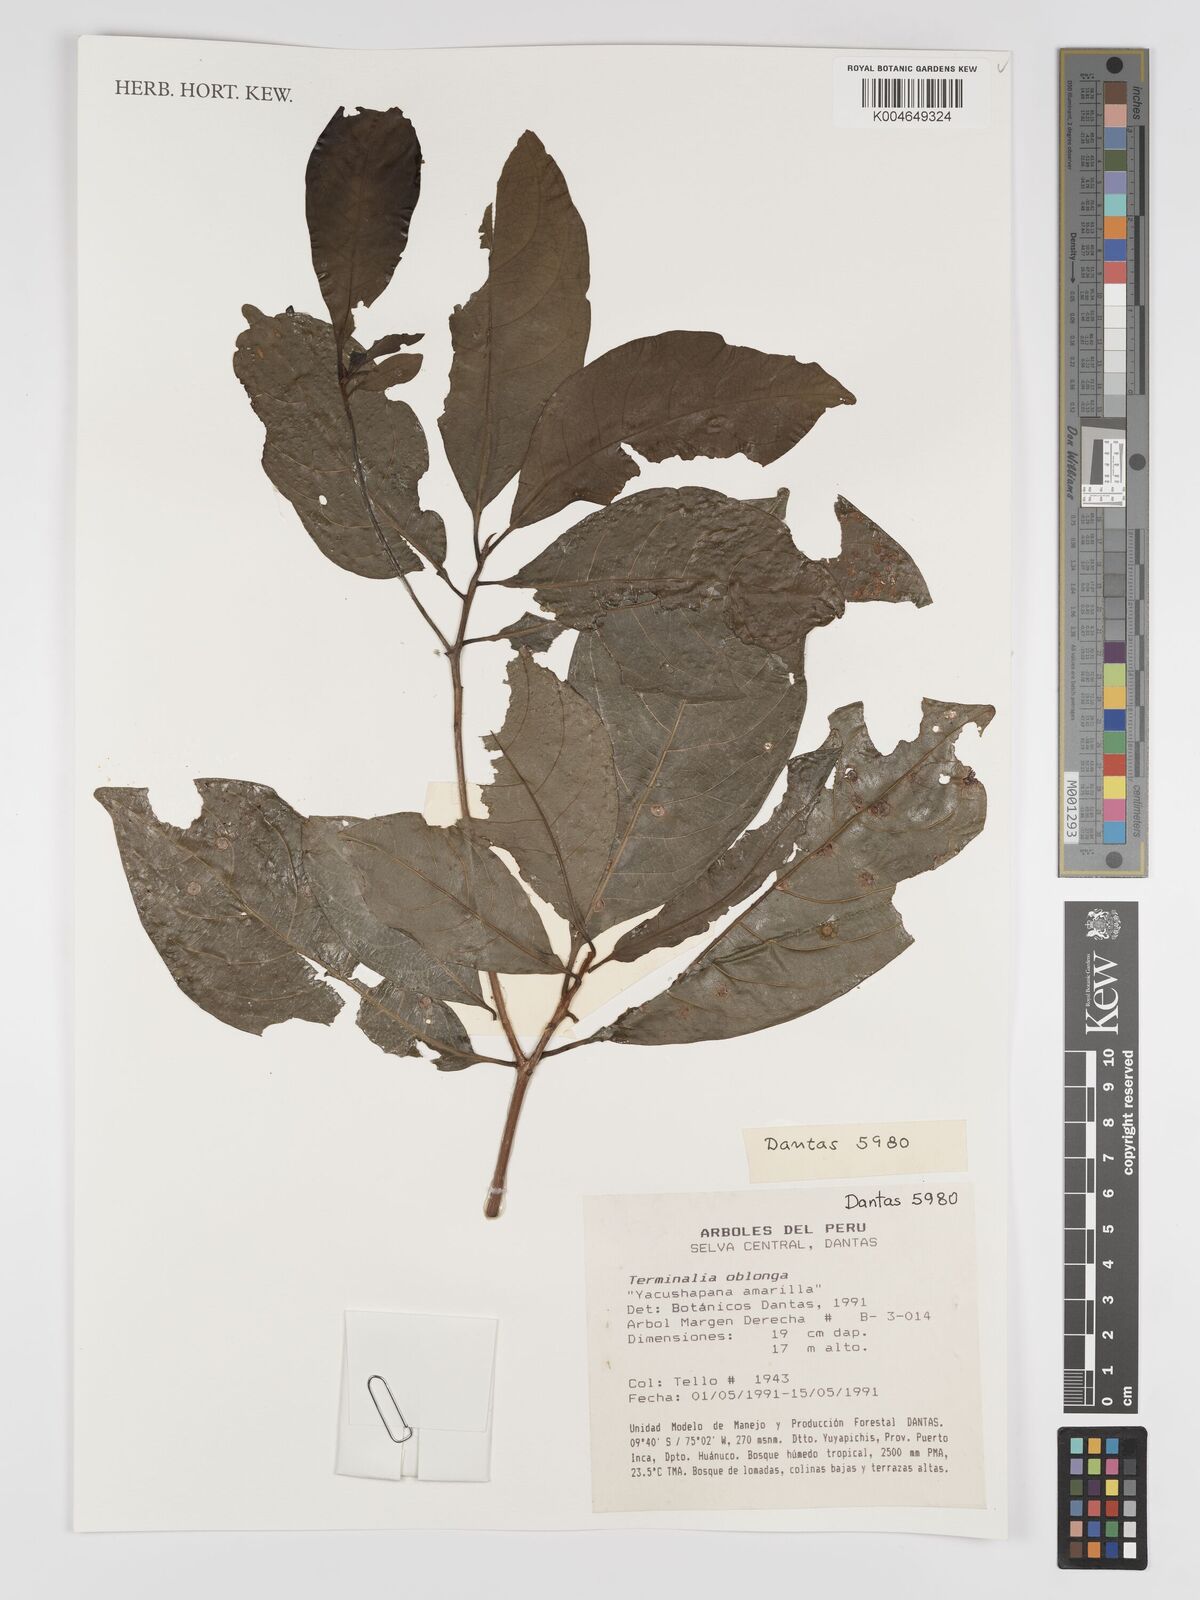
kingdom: Plantae
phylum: Tracheophyta
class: Magnoliopsida
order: Myrtales
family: Combretaceae
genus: Terminalia
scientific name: Terminalia oblonga
